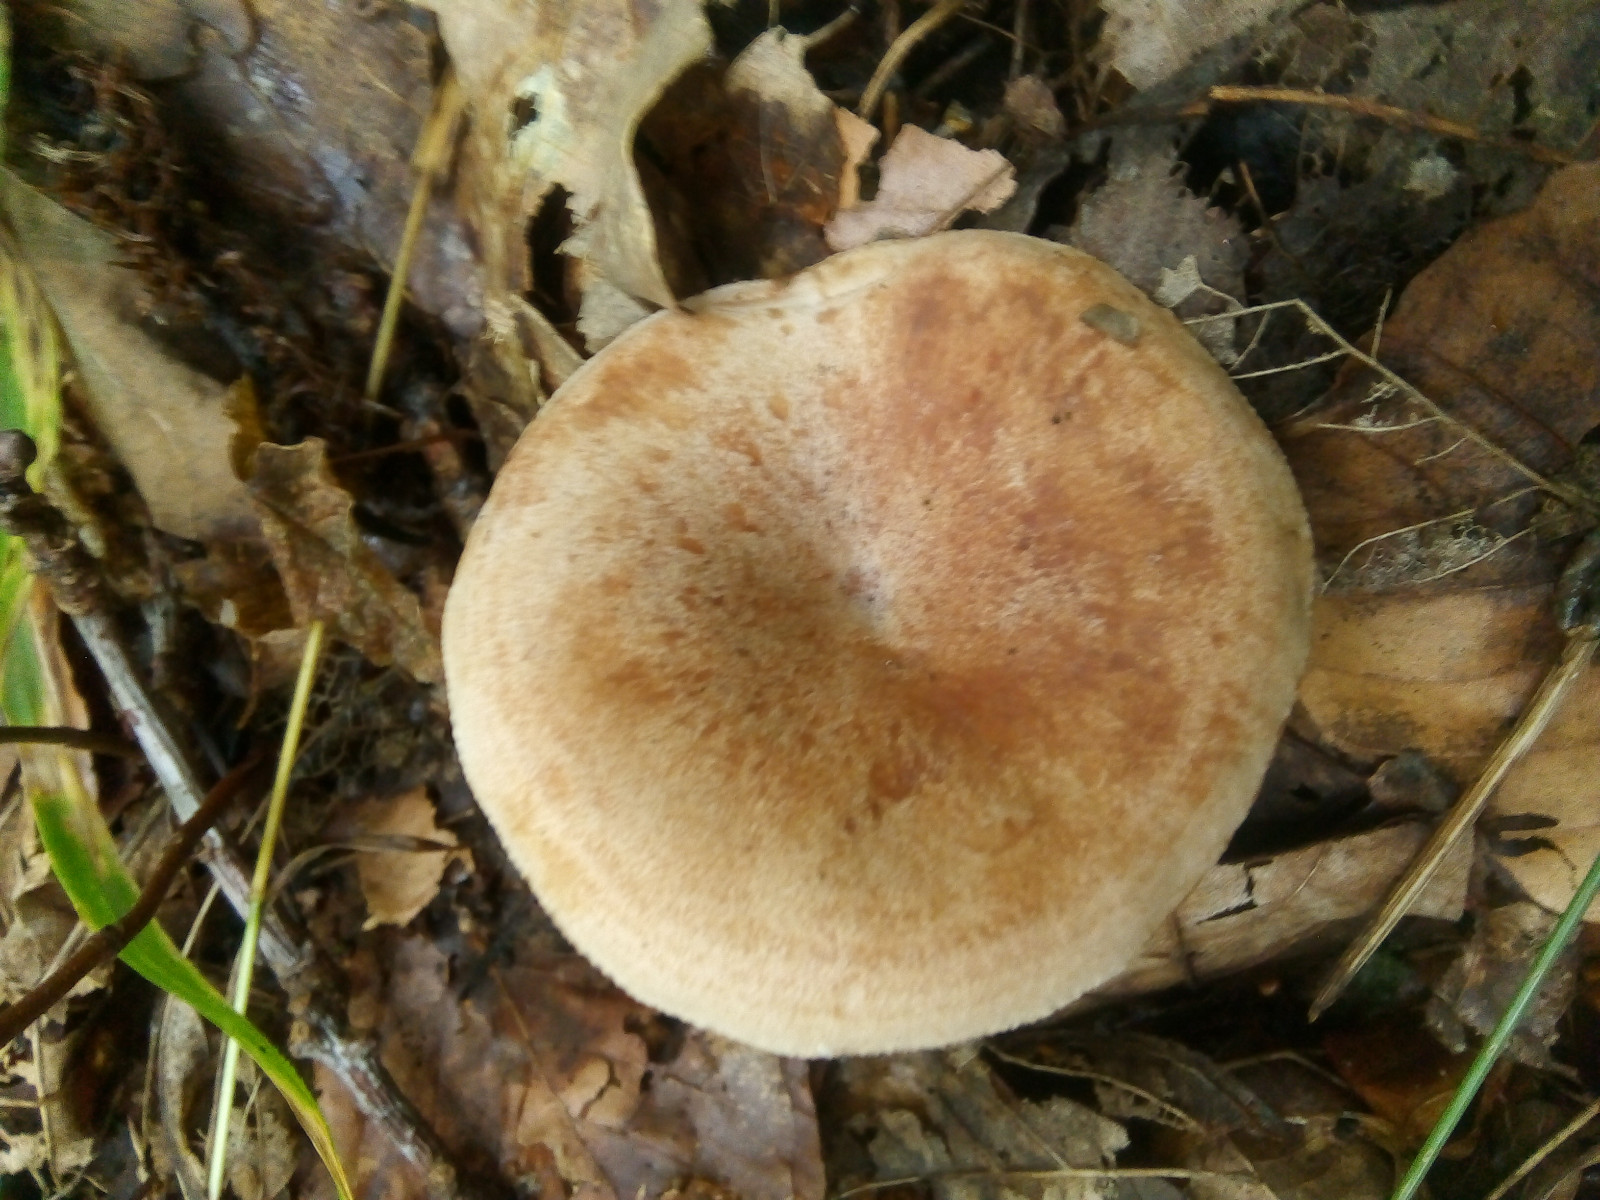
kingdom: Fungi
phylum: Basidiomycota
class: Agaricomycetes
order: Russulales
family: Russulaceae
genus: Lactarius
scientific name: Lactarius quietus
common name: ege-mælkehat
